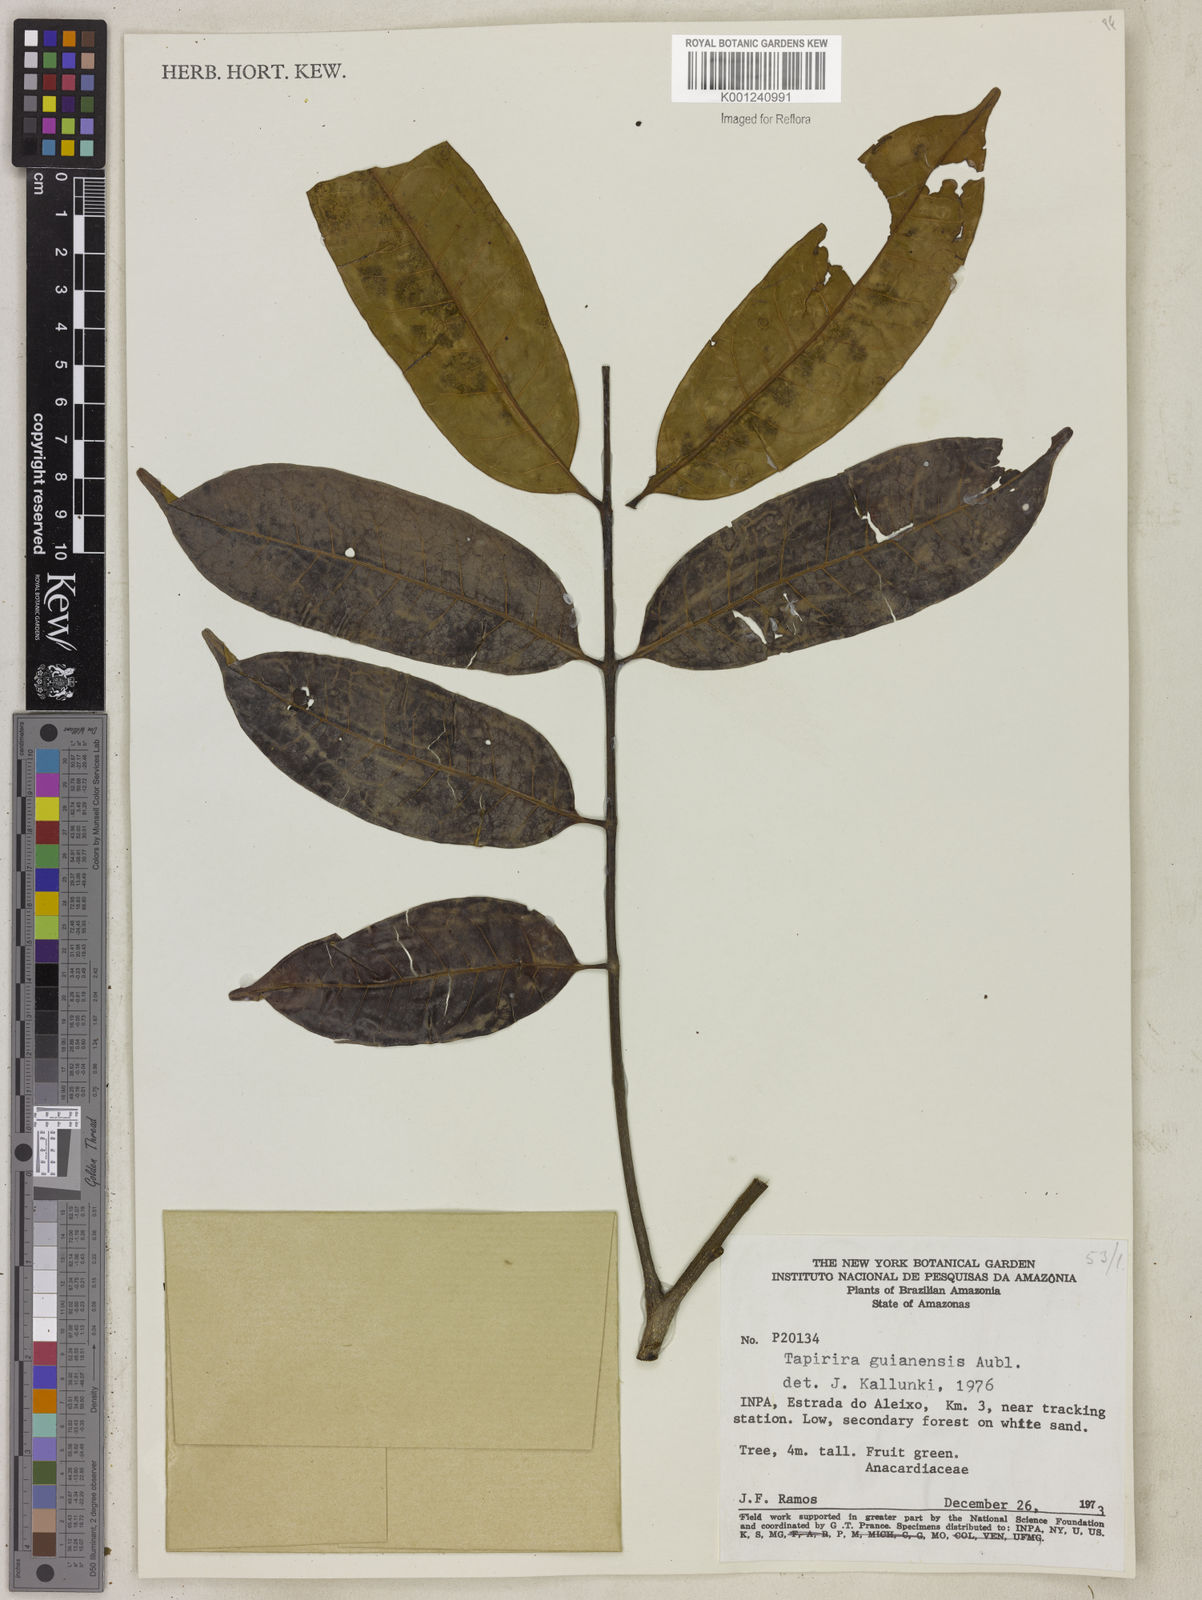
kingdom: Plantae
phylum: Tracheophyta
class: Magnoliopsida
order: Sapindales
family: Anacardiaceae
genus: Tapirira
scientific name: Tapirira guianensis
